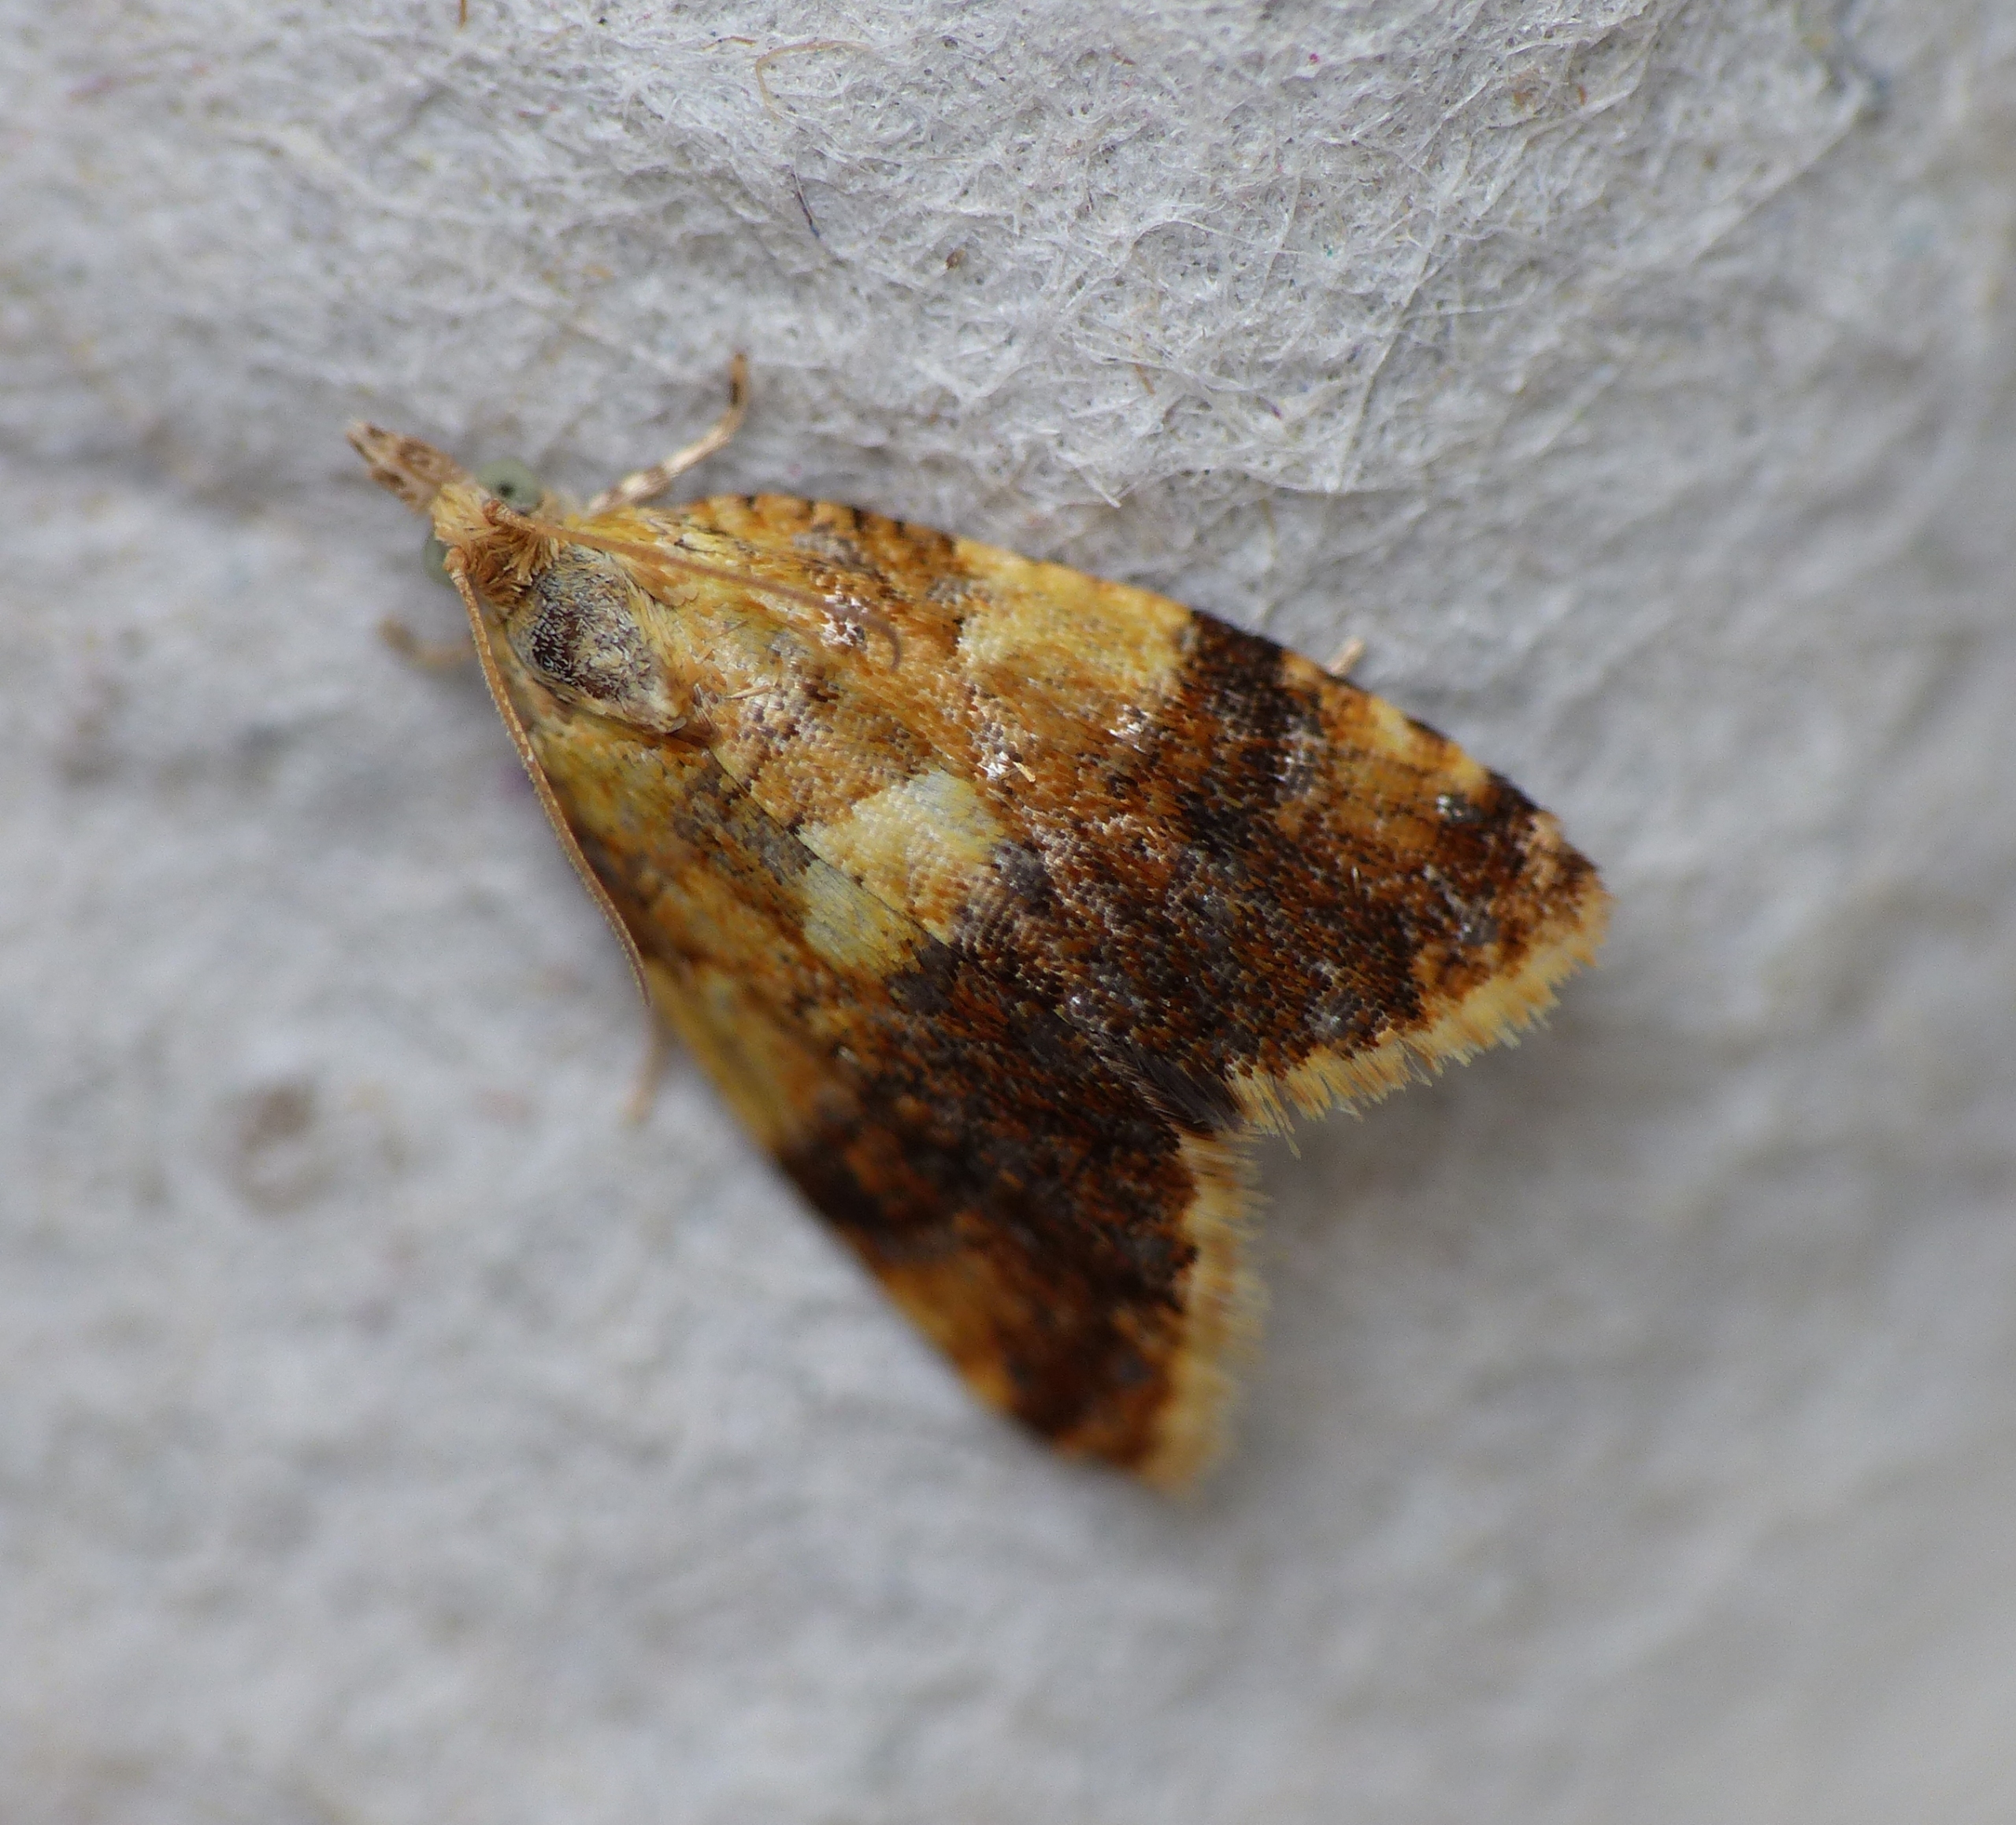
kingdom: Animalia
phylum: Arthropoda
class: Insecta
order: Lepidoptera
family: Tortricidae
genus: Pseudargyrotoza
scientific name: Pseudargyrotoza conwagana
